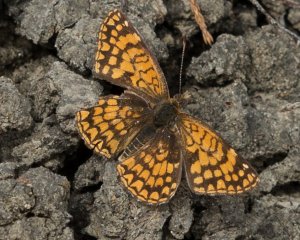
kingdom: Animalia
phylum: Arthropoda
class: Insecta
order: Lepidoptera
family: Nymphalidae
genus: Chlosyne
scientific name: Chlosyne acastus
